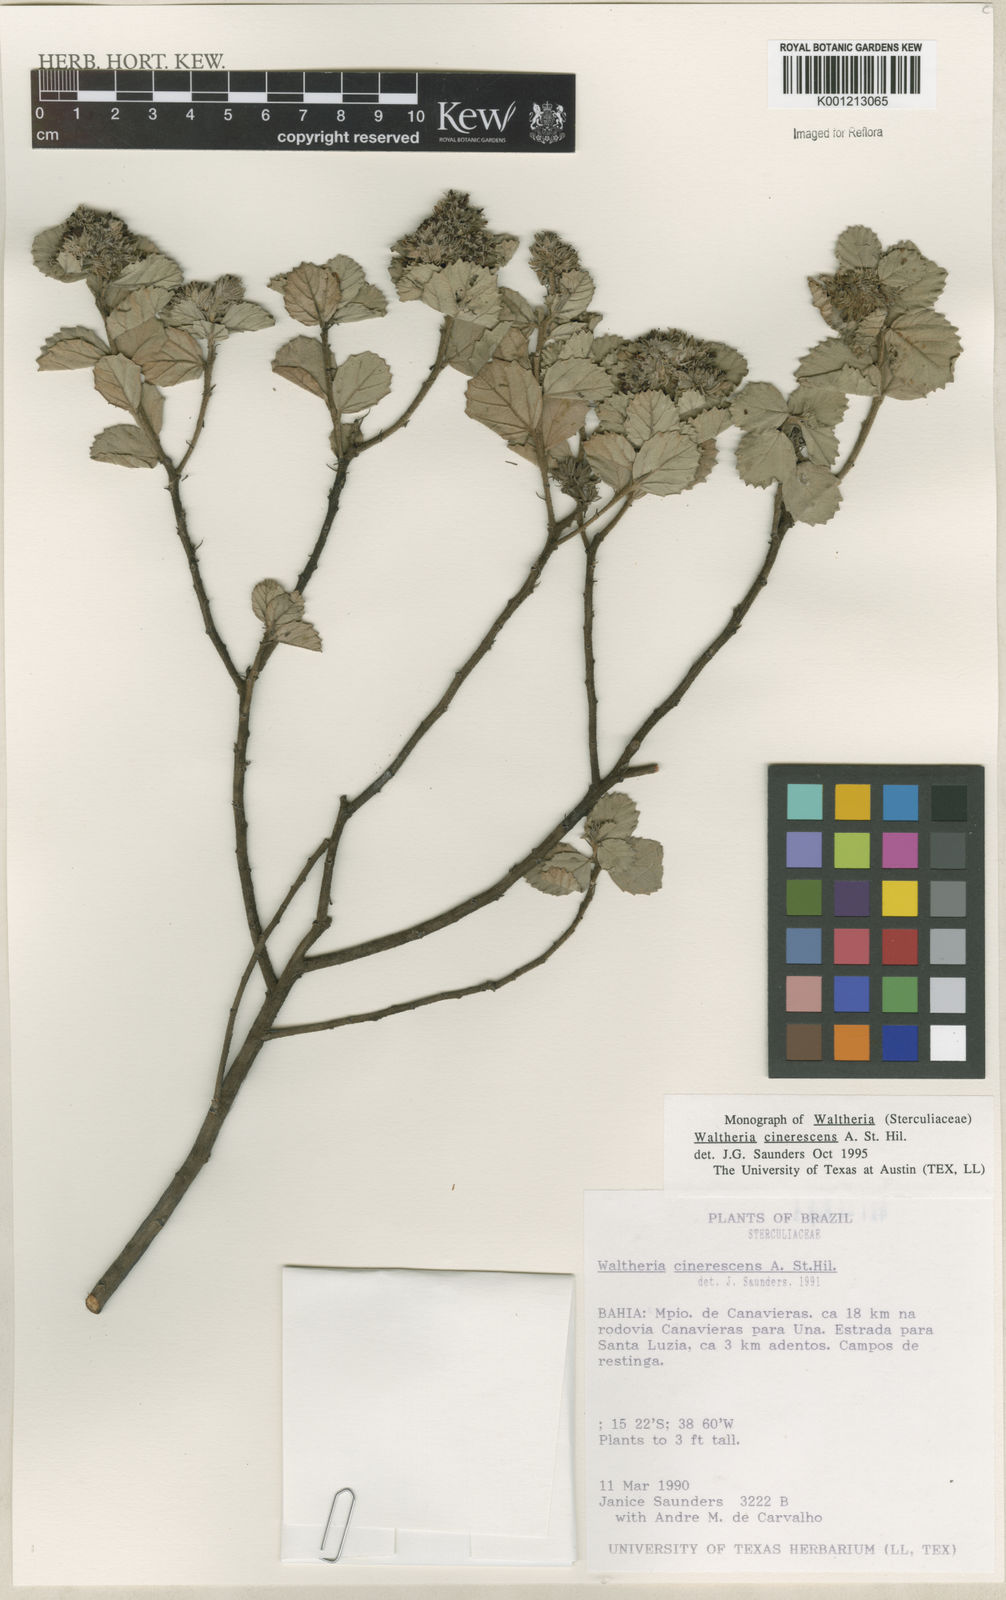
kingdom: Plantae
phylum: Tracheophyta
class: Magnoliopsida
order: Malvales
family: Malvaceae
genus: Waltheria
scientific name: Waltheria cinerescens
